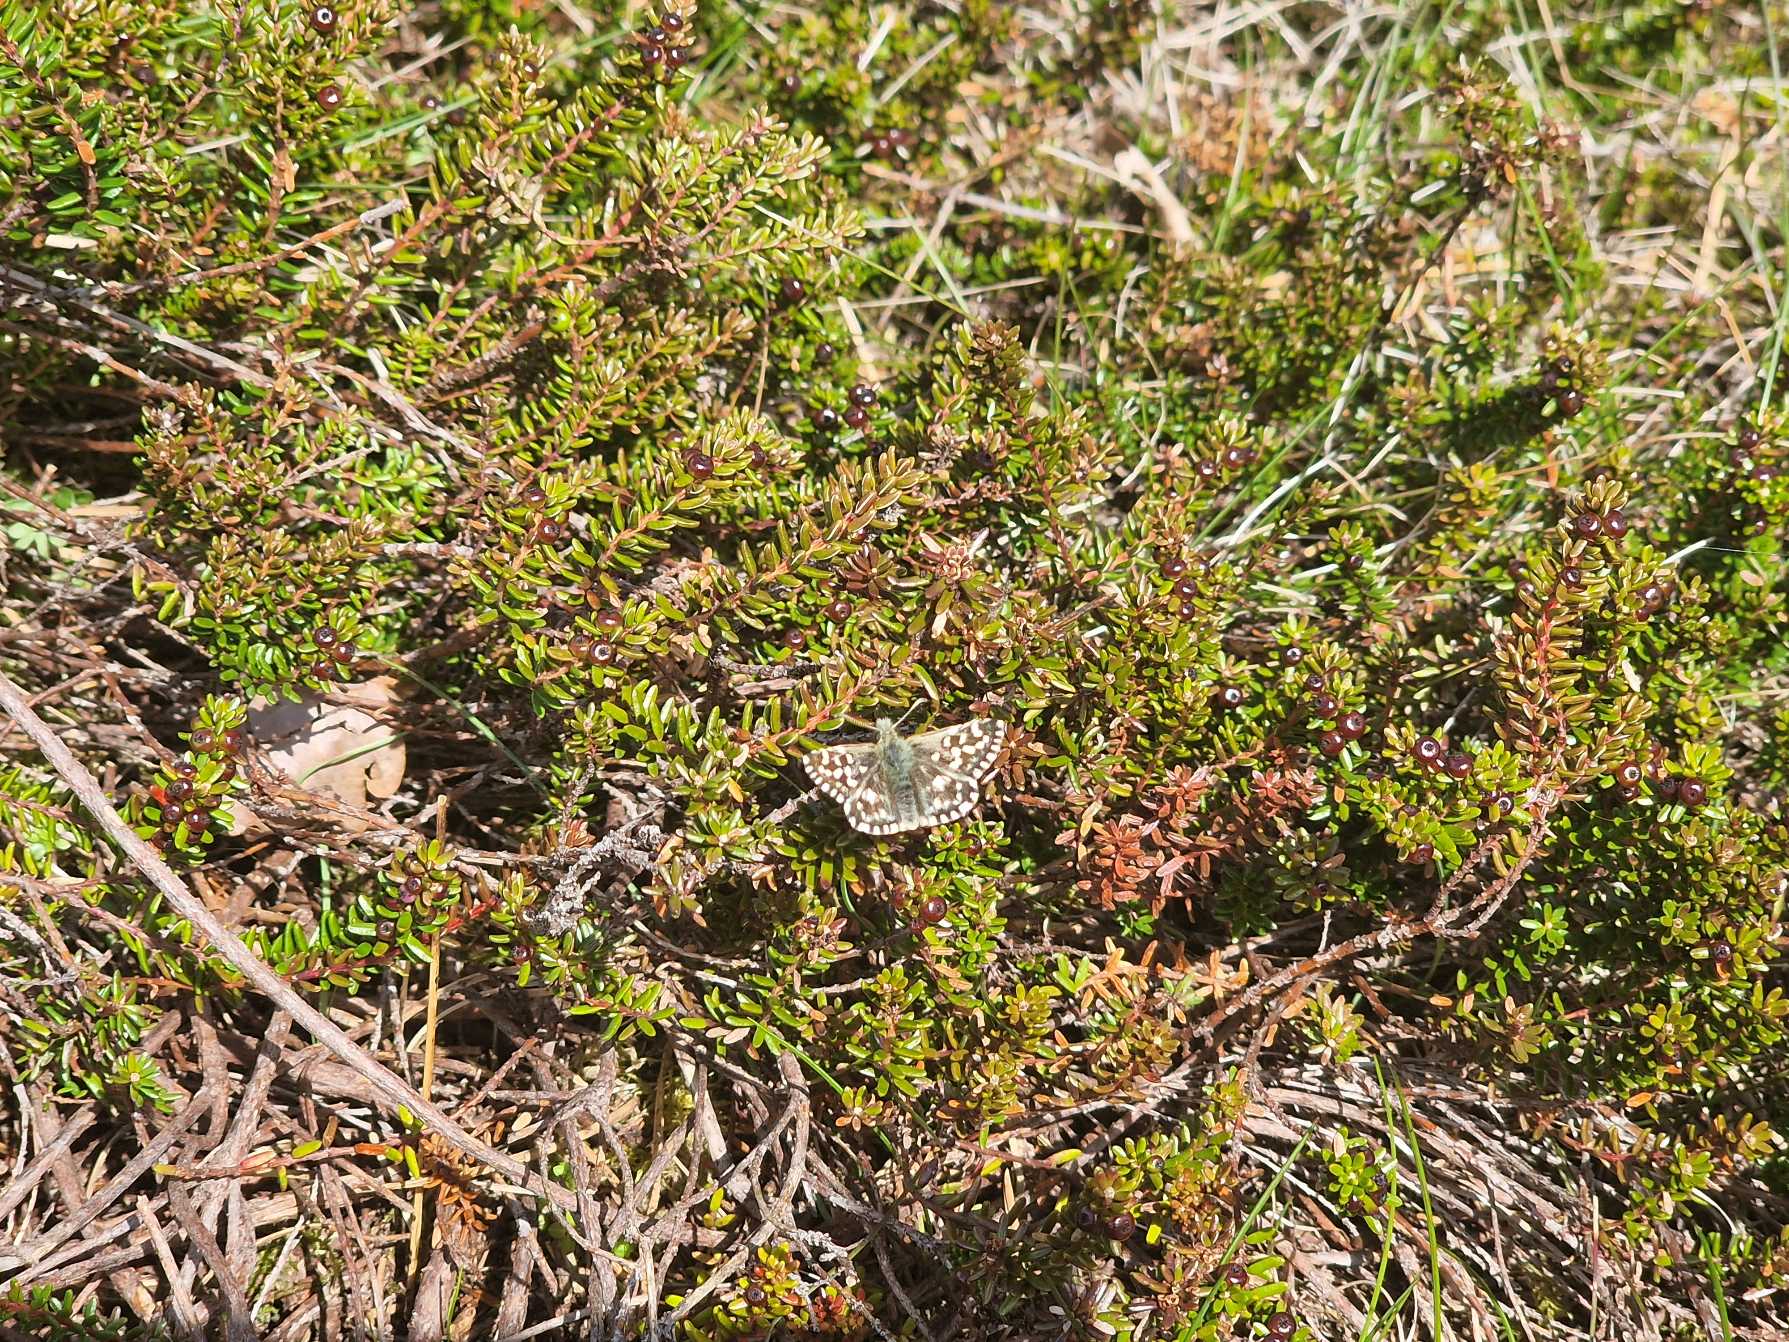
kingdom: Animalia
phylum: Arthropoda
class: Insecta
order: Lepidoptera
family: Hesperiidae
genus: Pyrgus
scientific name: Pyrgus malvae
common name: Spættet bredpande
